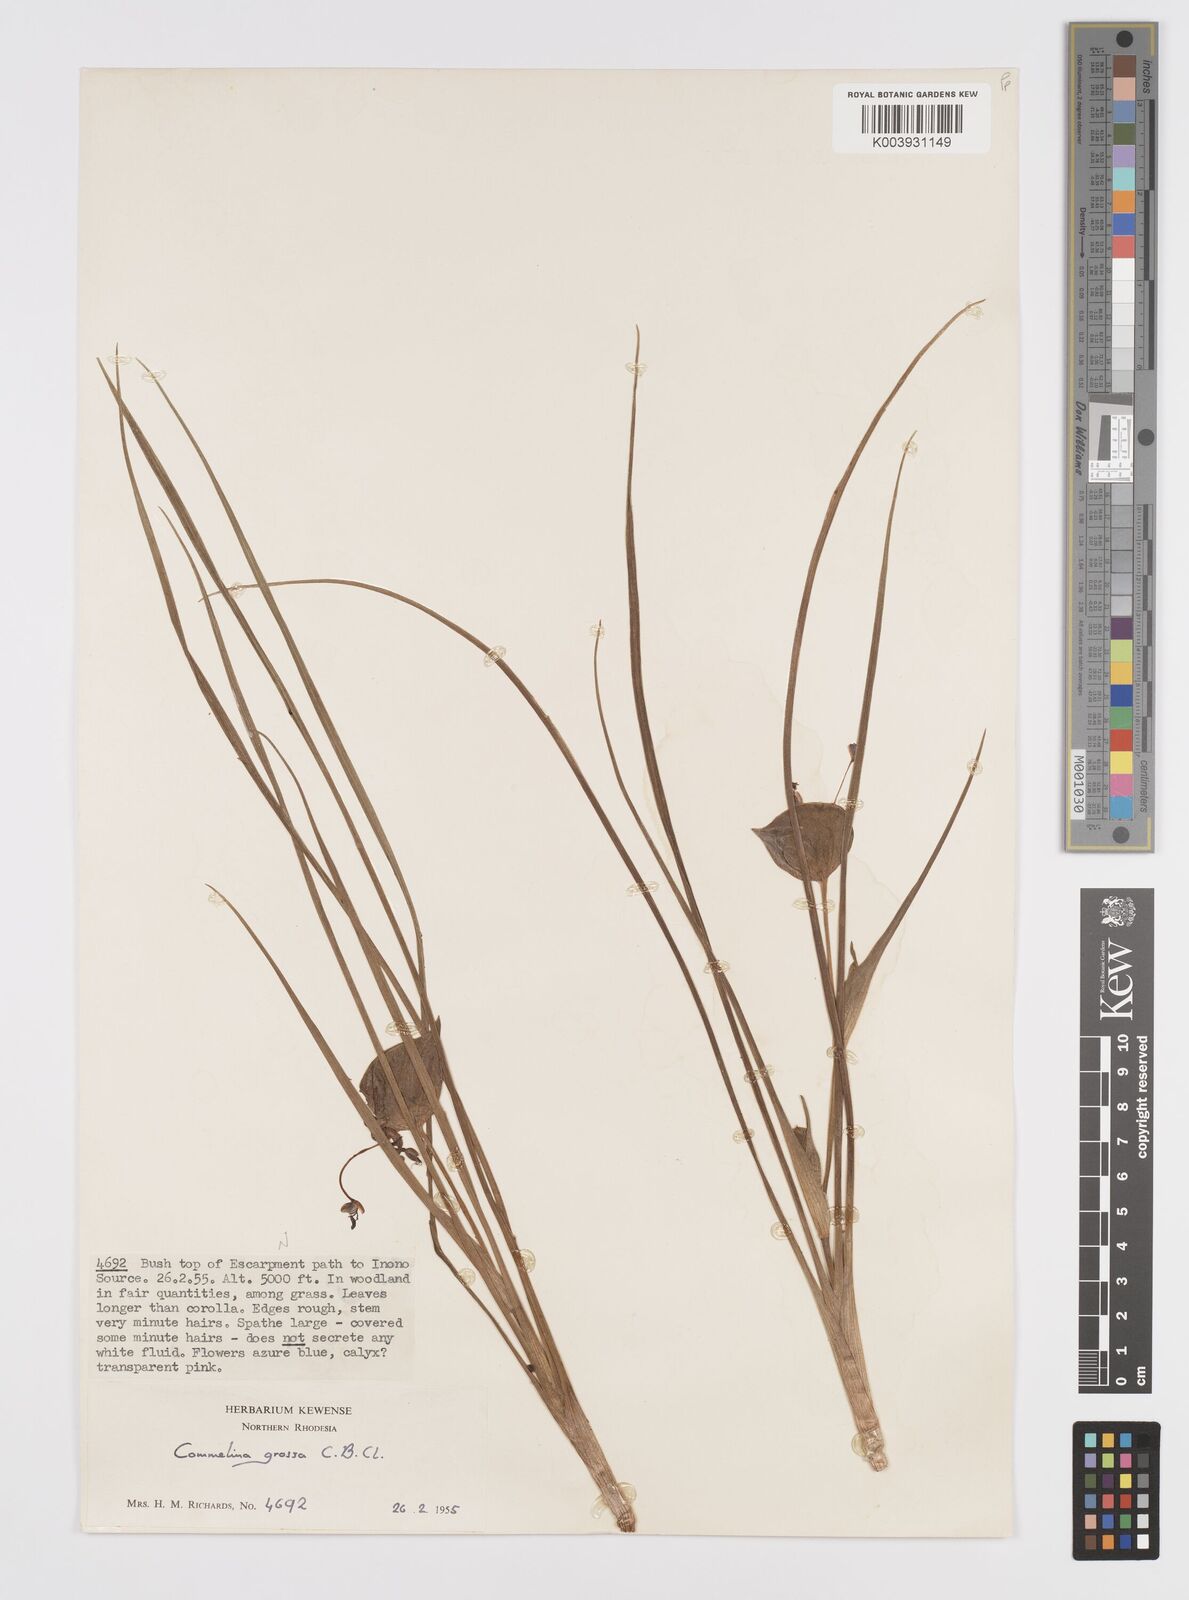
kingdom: Plantae
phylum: Tracheophyta
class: Liliopsida
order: Commelinales
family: Commelinaceae
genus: Commelina
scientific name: Commelina grossa
